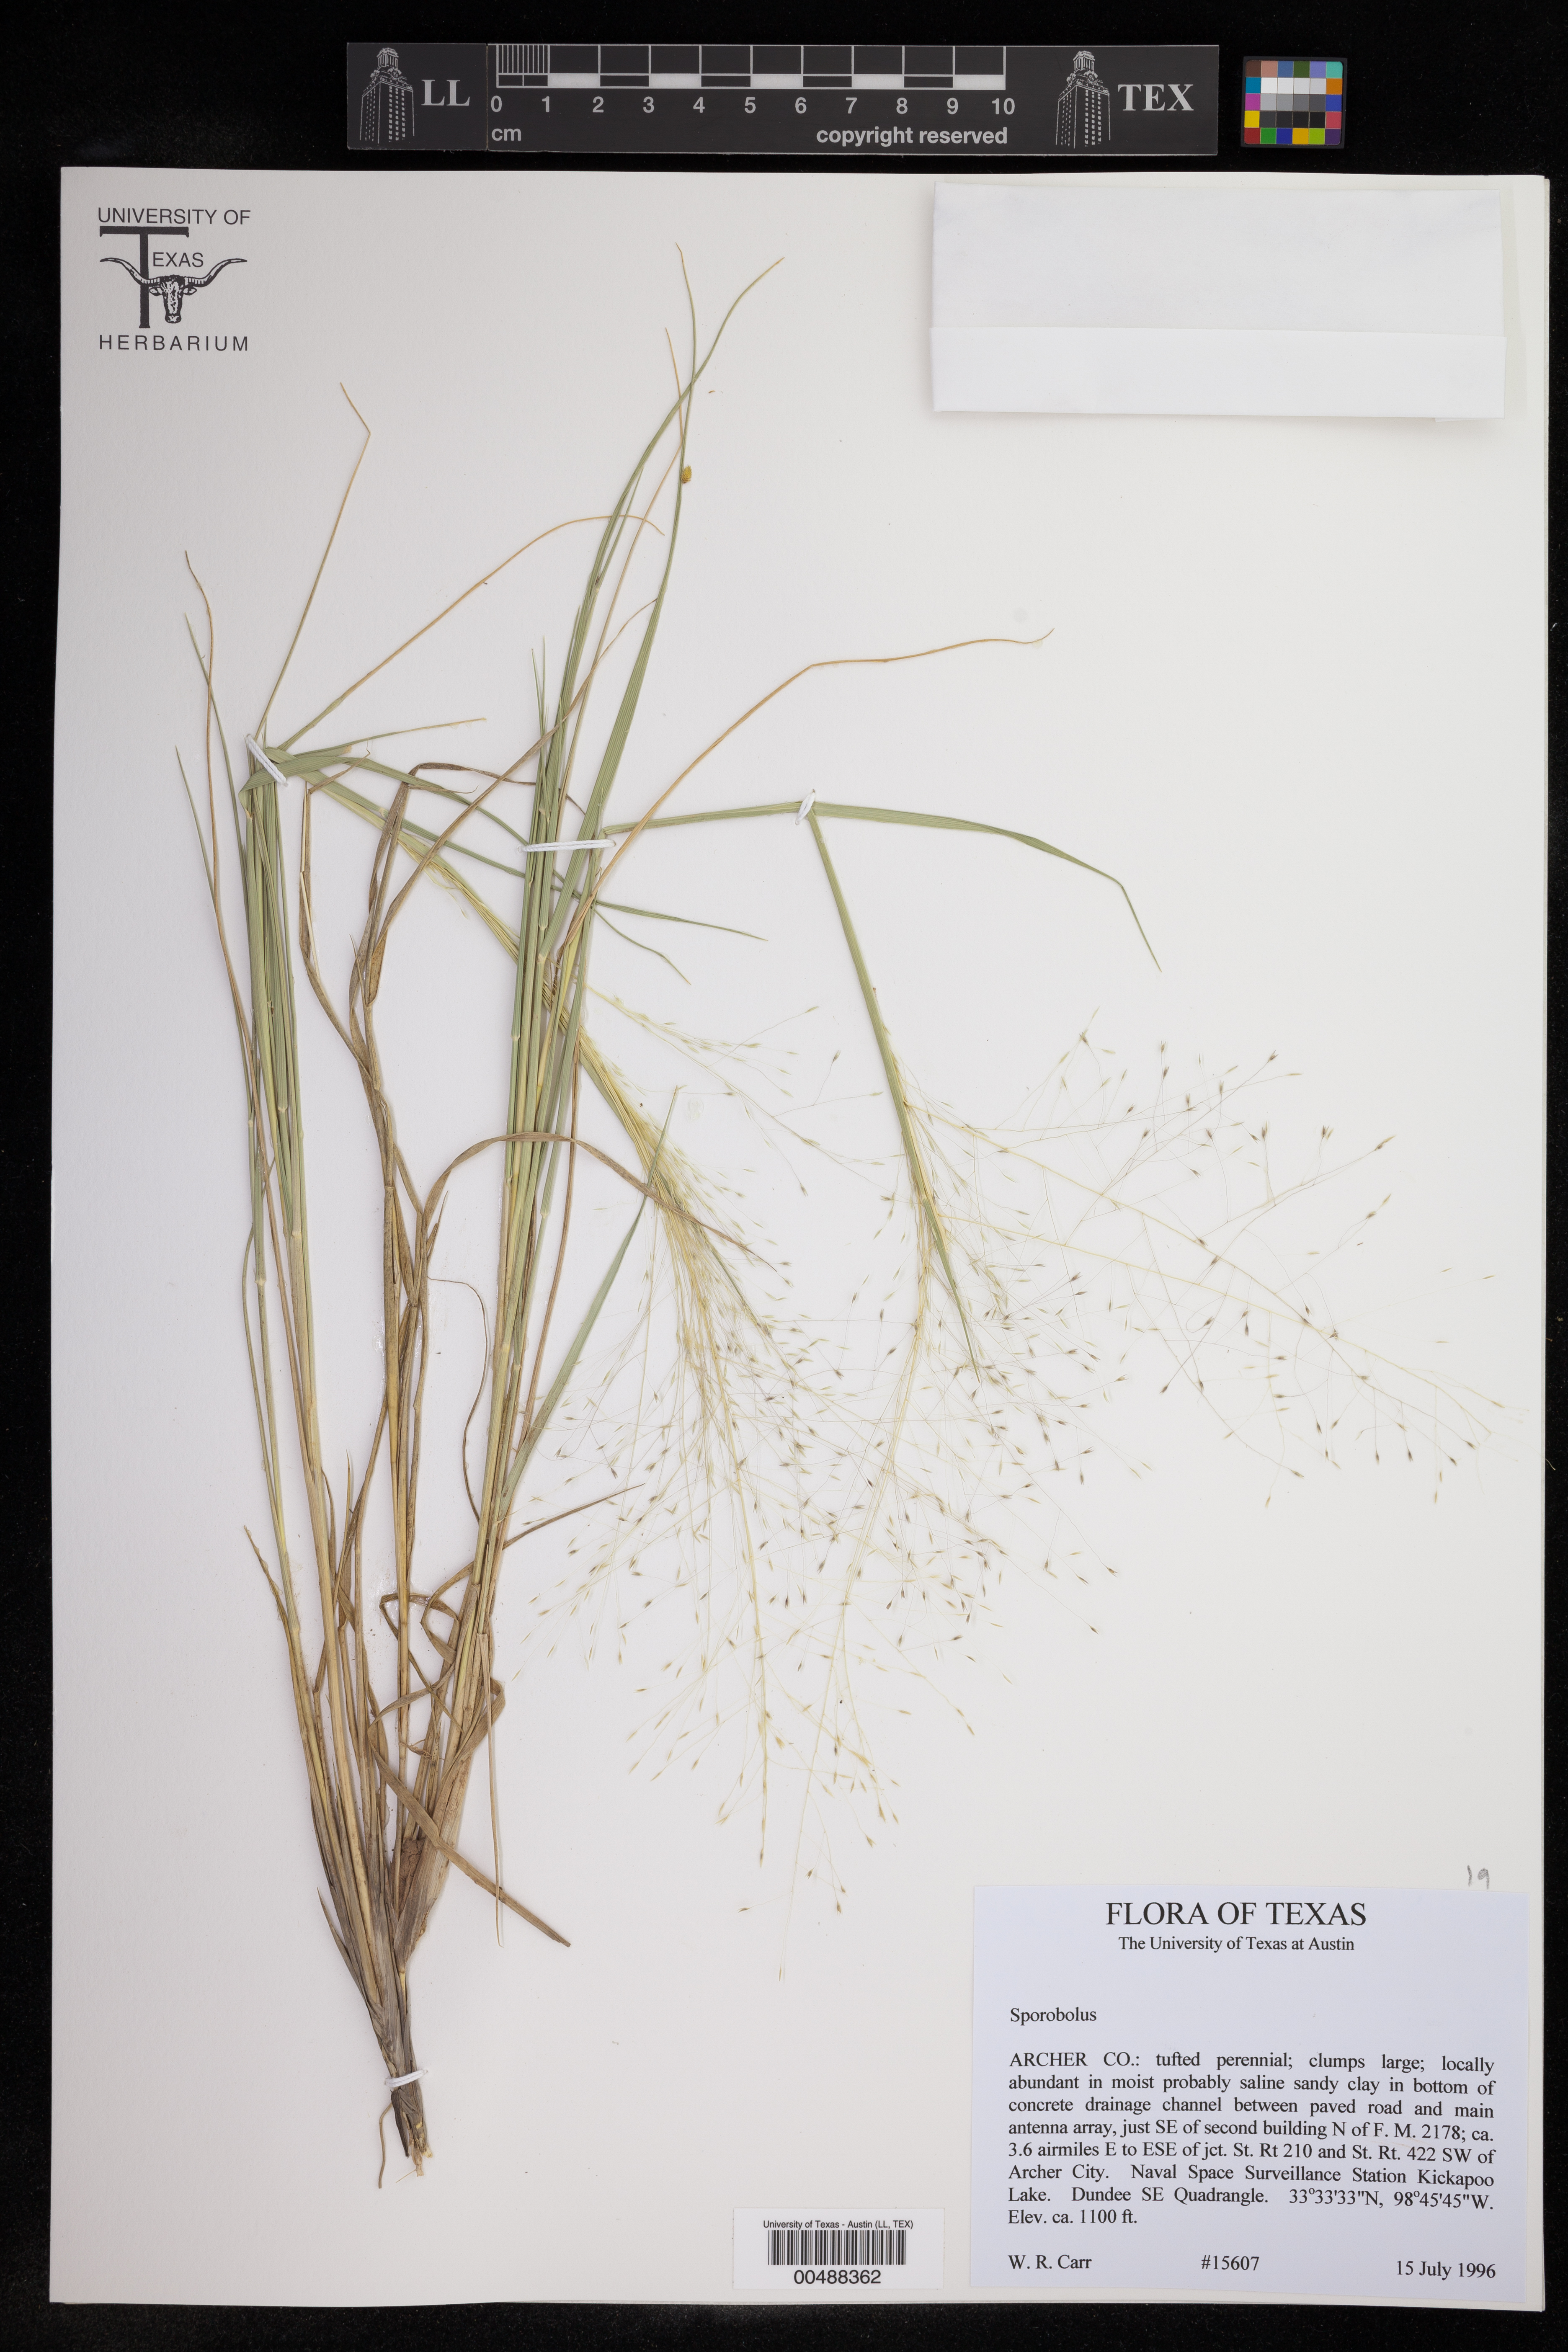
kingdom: Plantae
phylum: Tracheophyta
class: Liliopsida
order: Poales
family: Poaceae
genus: Sporobolus
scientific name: Sporobolus
